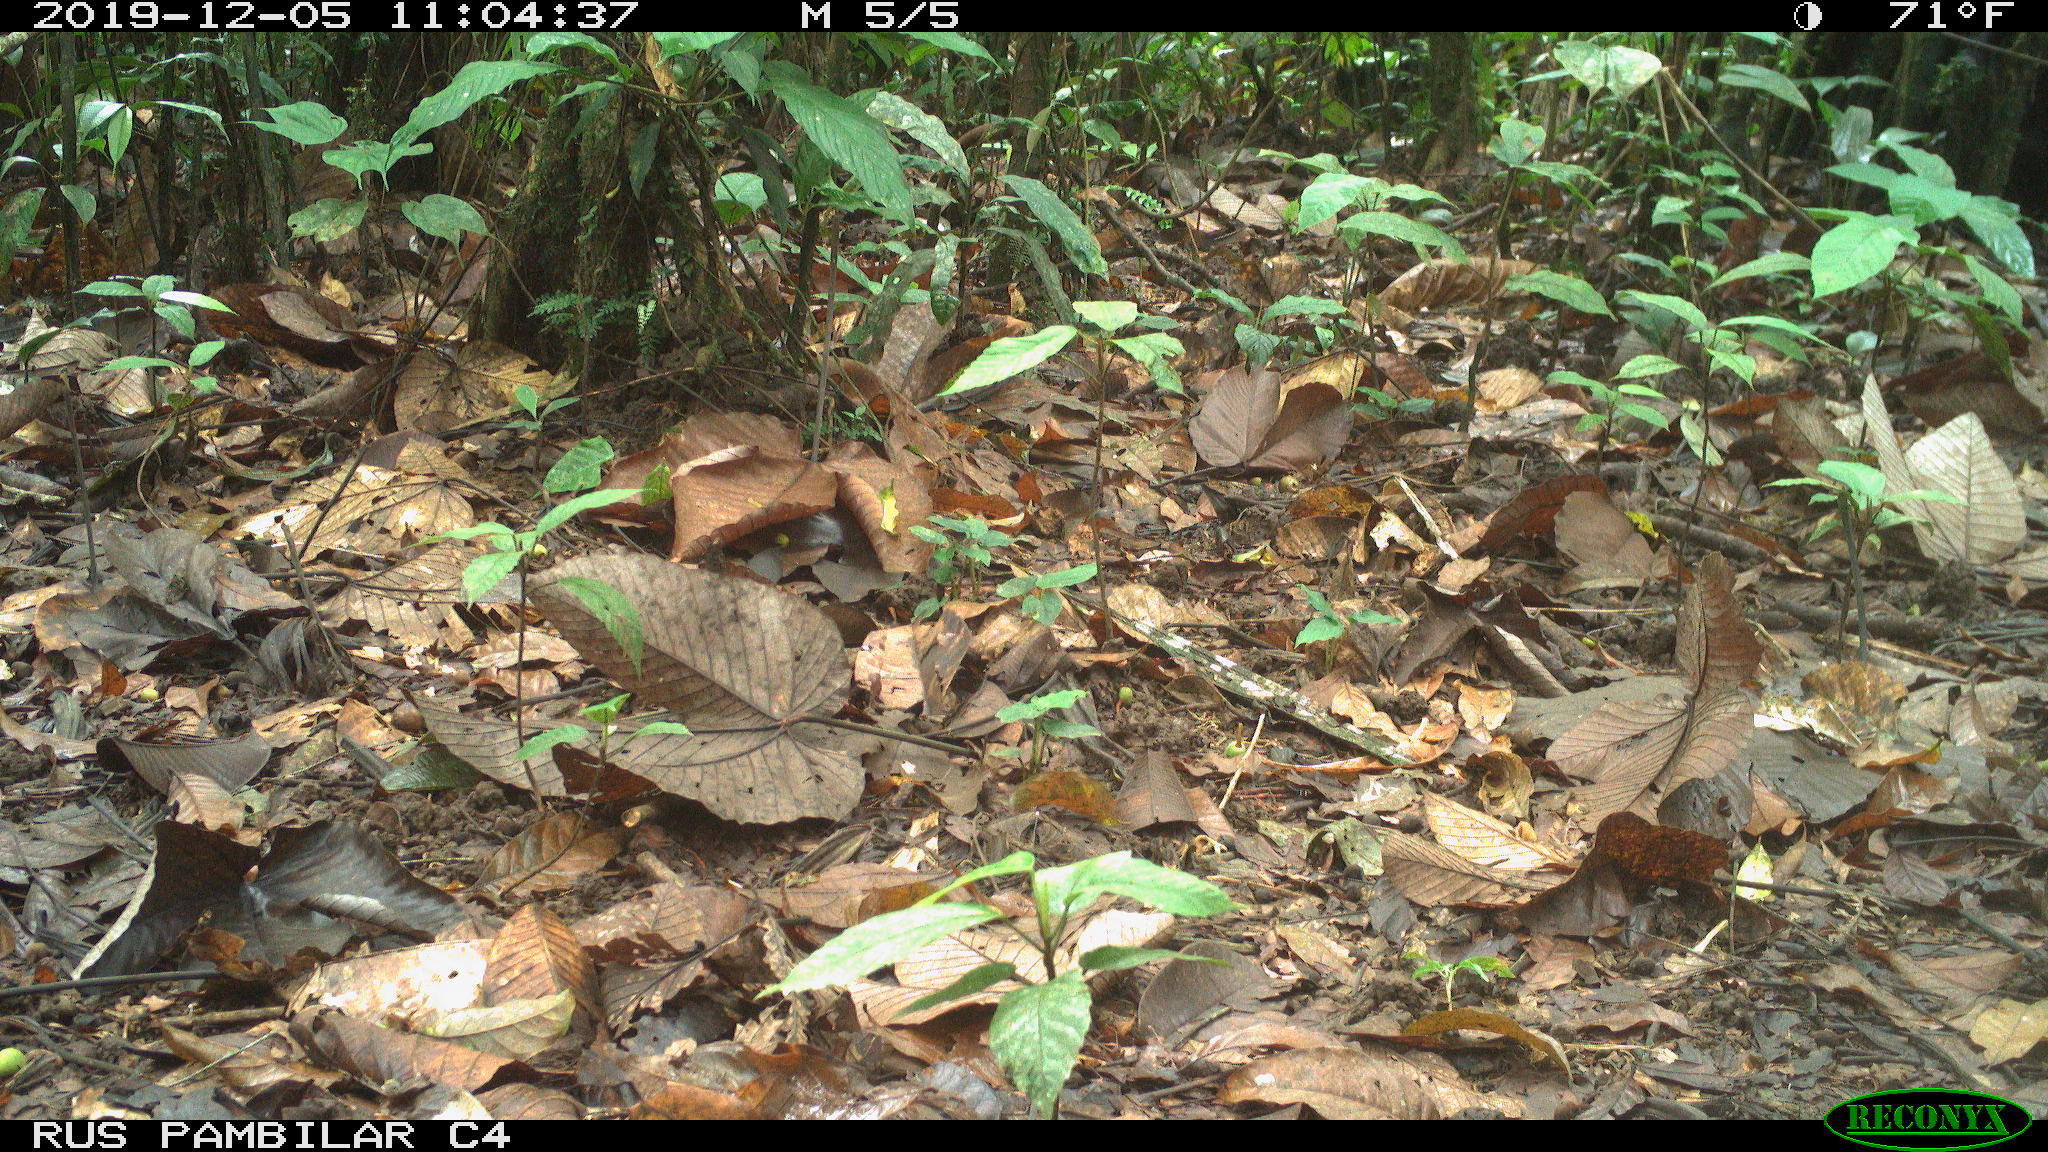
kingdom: Animalia
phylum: Chordata
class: Mammalia
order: Rodentia
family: Dasyproctidae
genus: Dasyprocta
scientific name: Dasyprocta punctata
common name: Central american agouti
